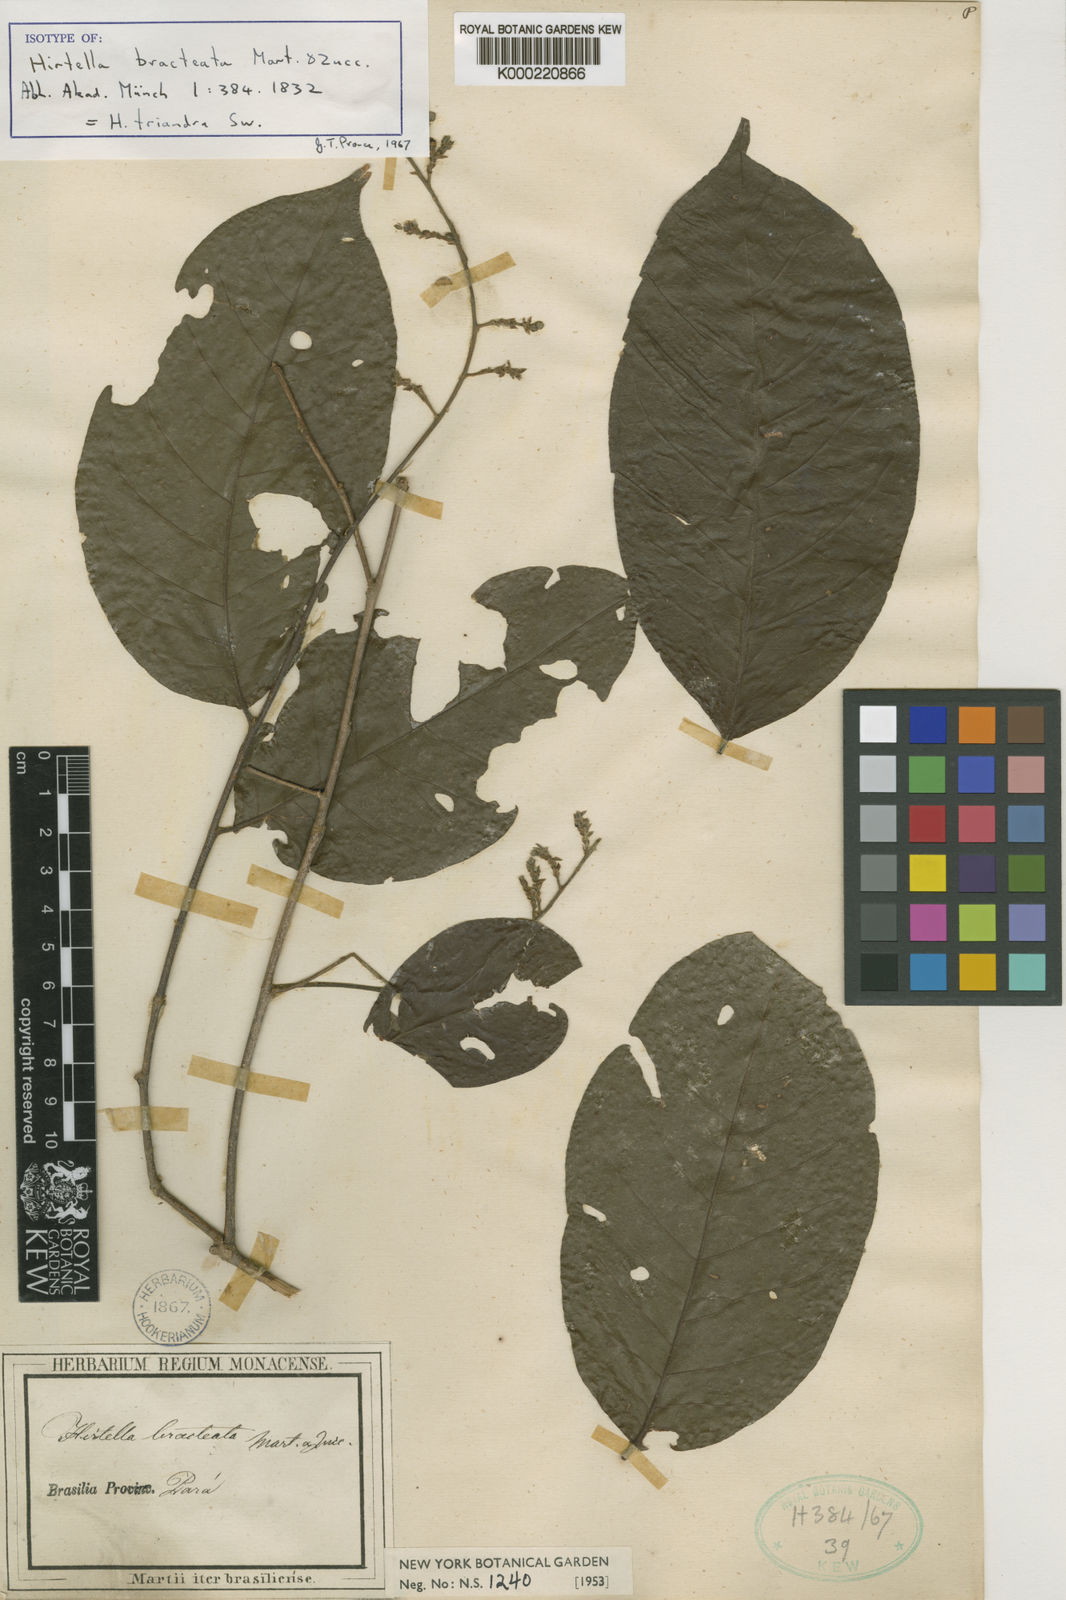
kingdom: Plantae
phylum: Tracheophyta
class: Magnoliopsida
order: Malpighiales
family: Chrysobalanaceae
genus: Hirtella
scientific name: Hirtella triandra
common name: Hairy plum
